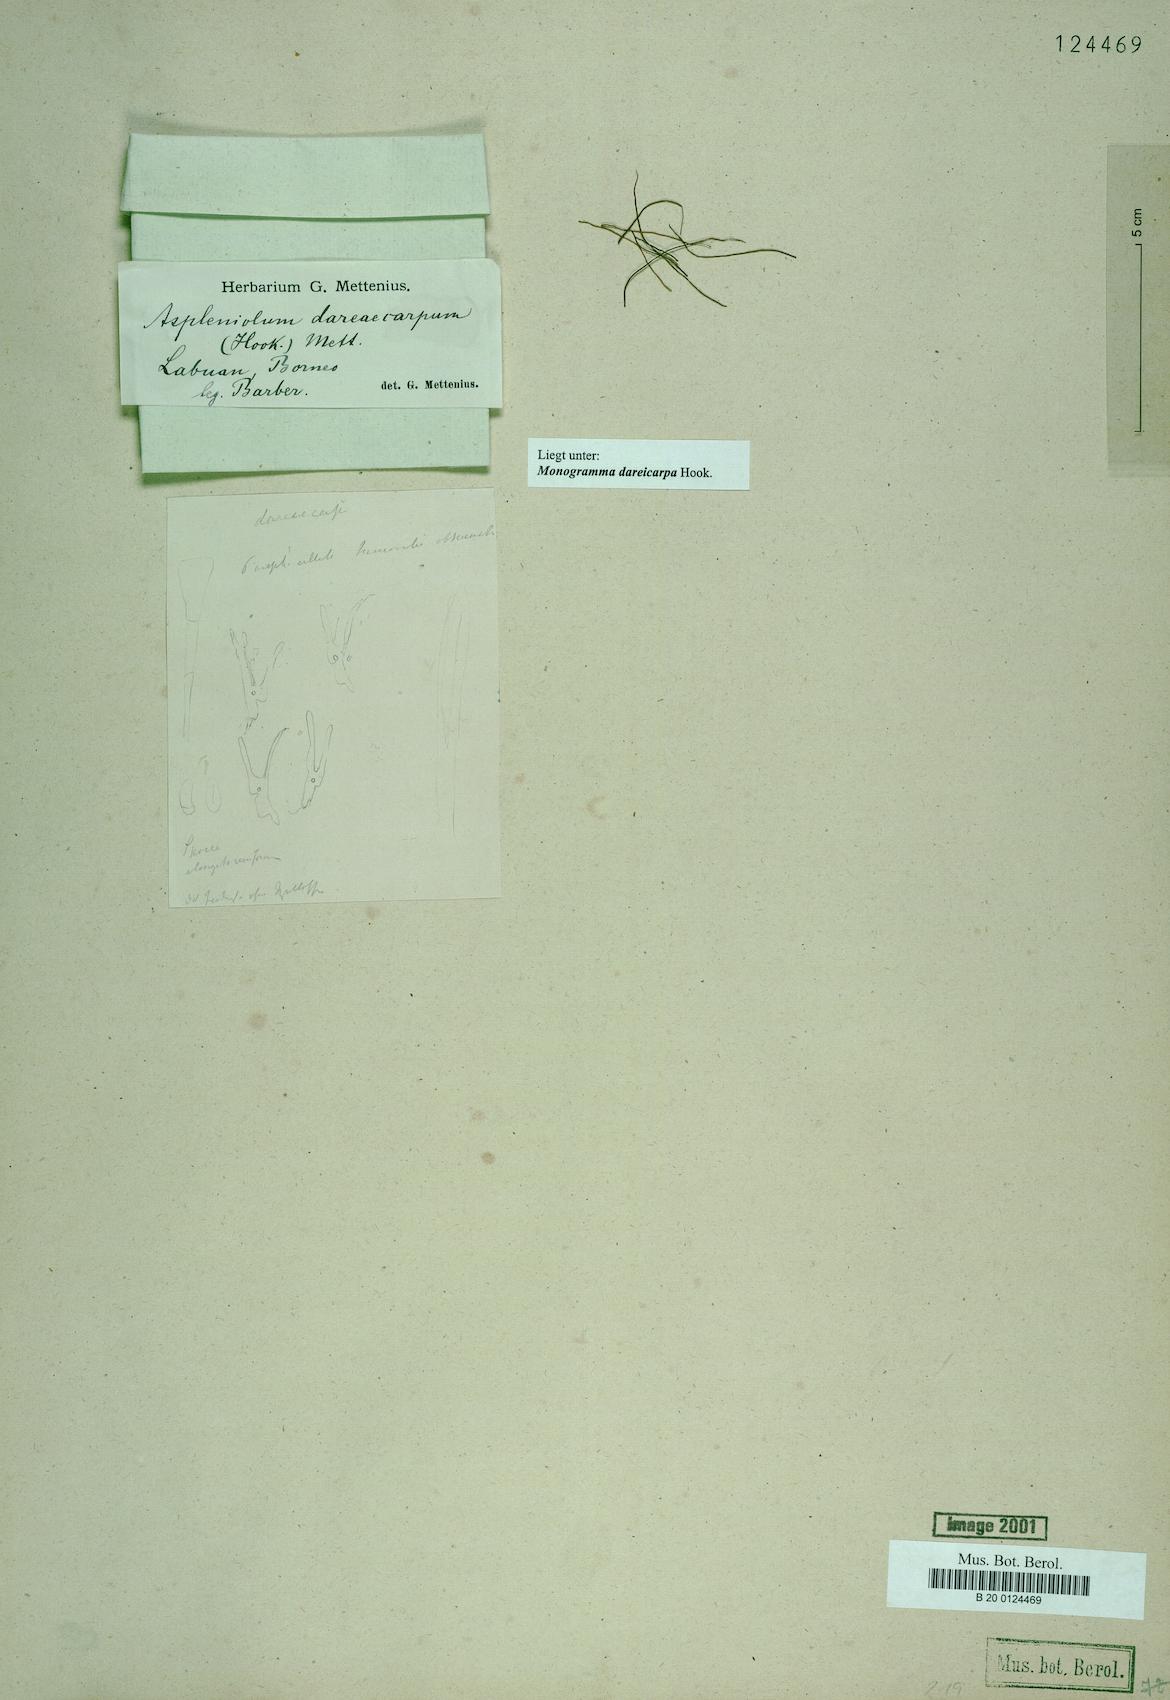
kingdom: Plantae
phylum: Tracheophyta
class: Polypodiopsida
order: Polypodiales
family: Pteridaceae
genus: Haplopteris
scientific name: Haplopteris dareicarpa
